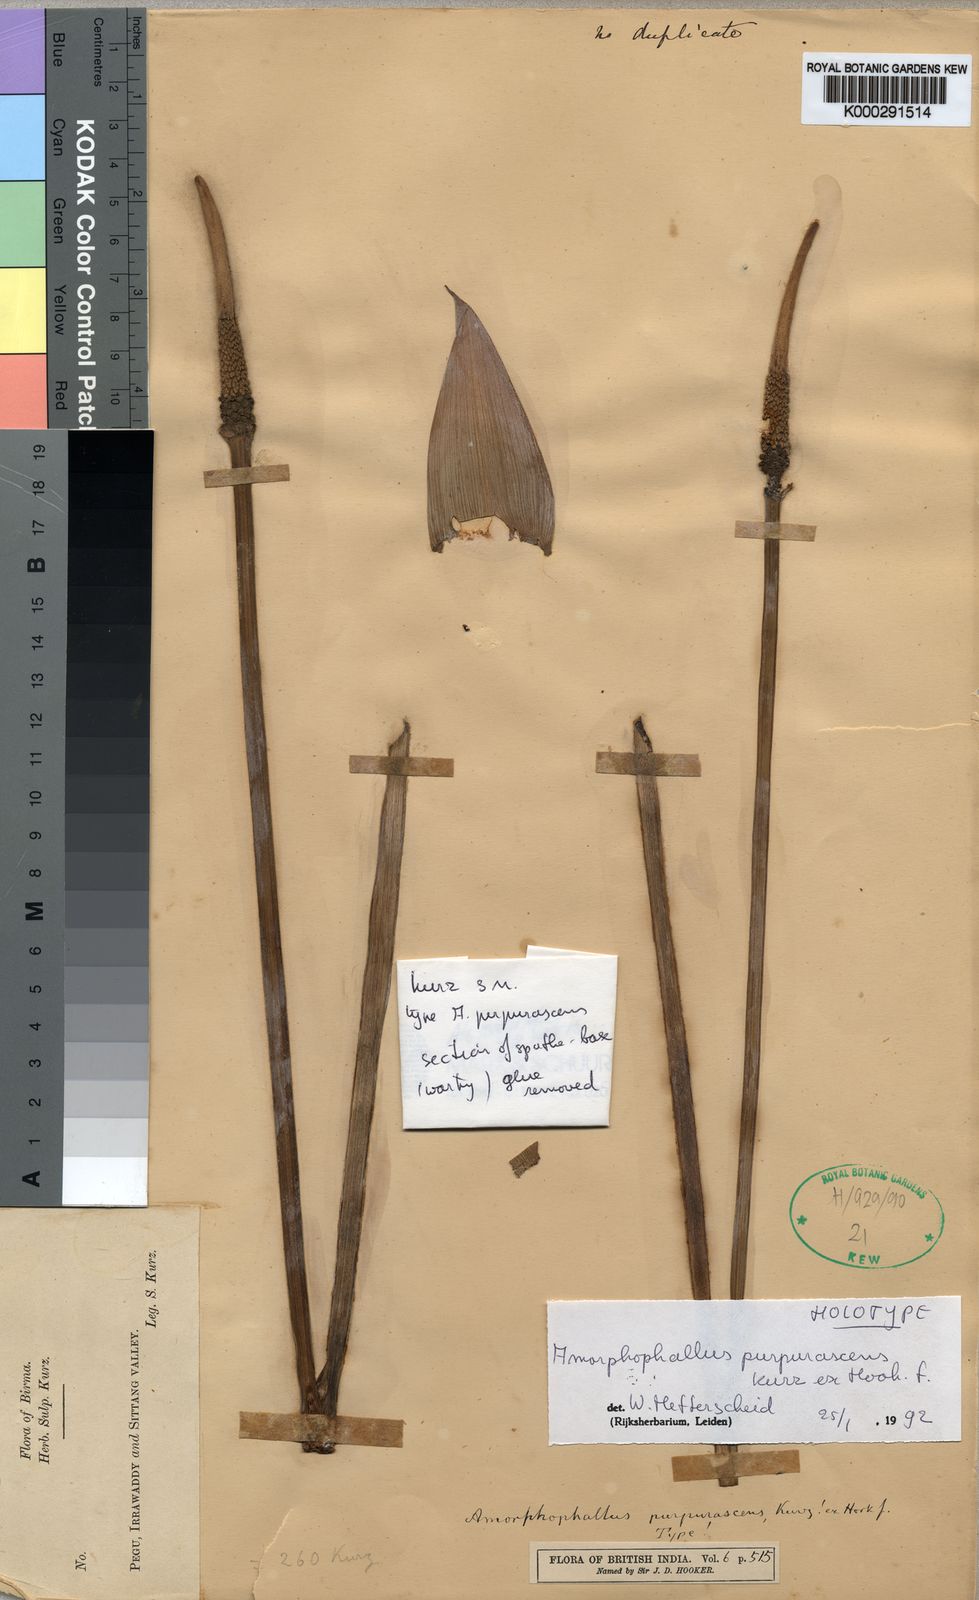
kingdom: Plantae
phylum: Tracheophyta
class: Liliopsida
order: Alismatales
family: Araceae
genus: Amorphophallus
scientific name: Amorphophallus purpurascens
